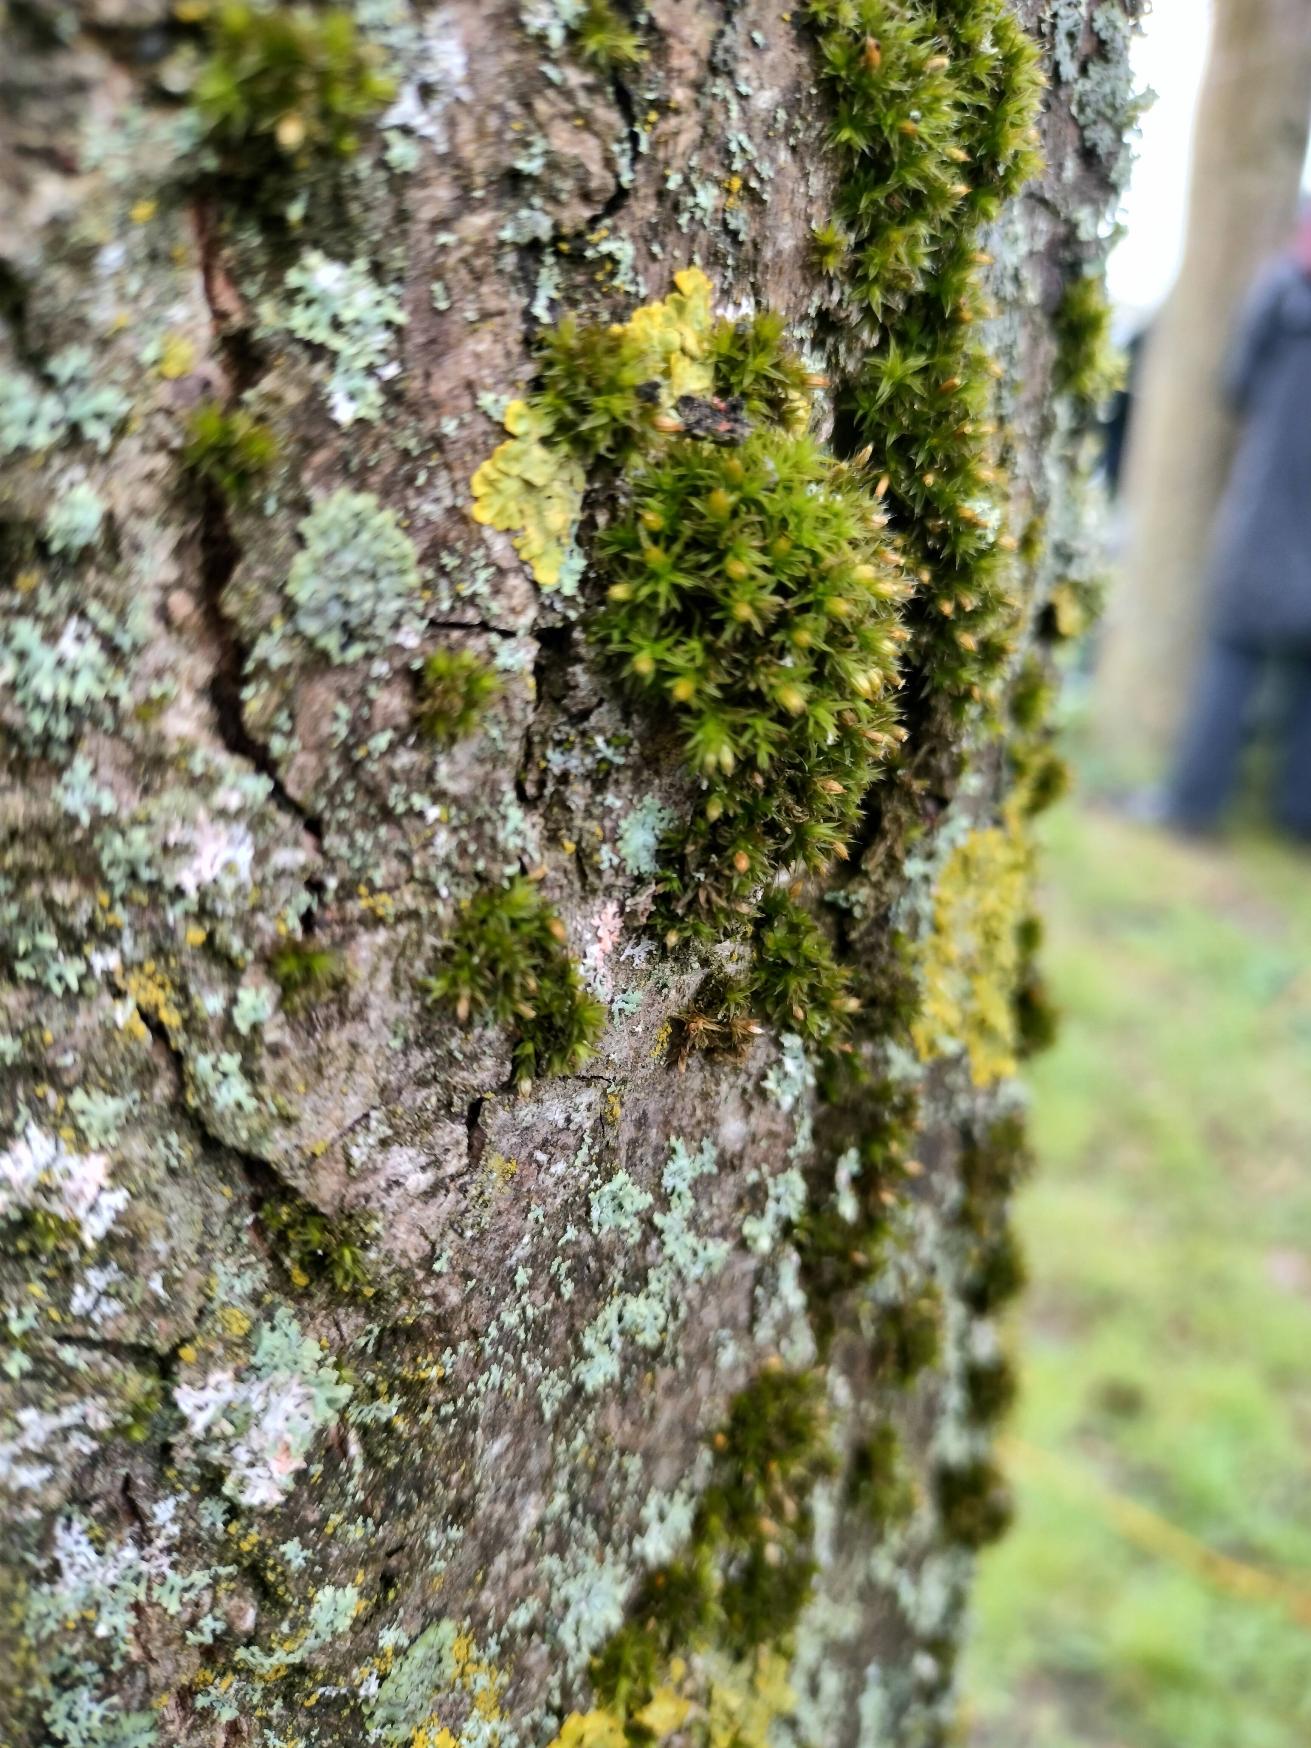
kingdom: Plantae
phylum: Bryophyta
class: Bryopsida
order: Orthotrichales
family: Orthotrichaceae
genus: Orthotrichum
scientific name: Orthotrichum diaphanum
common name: Hårspidset furehætte
